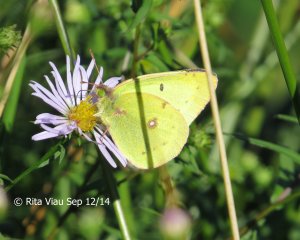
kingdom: Animalia
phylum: Arthropoda
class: Insecta
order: Lepidoptera
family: Pieridae
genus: Colias
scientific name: Colias philodice
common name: Clouded Sulphur
